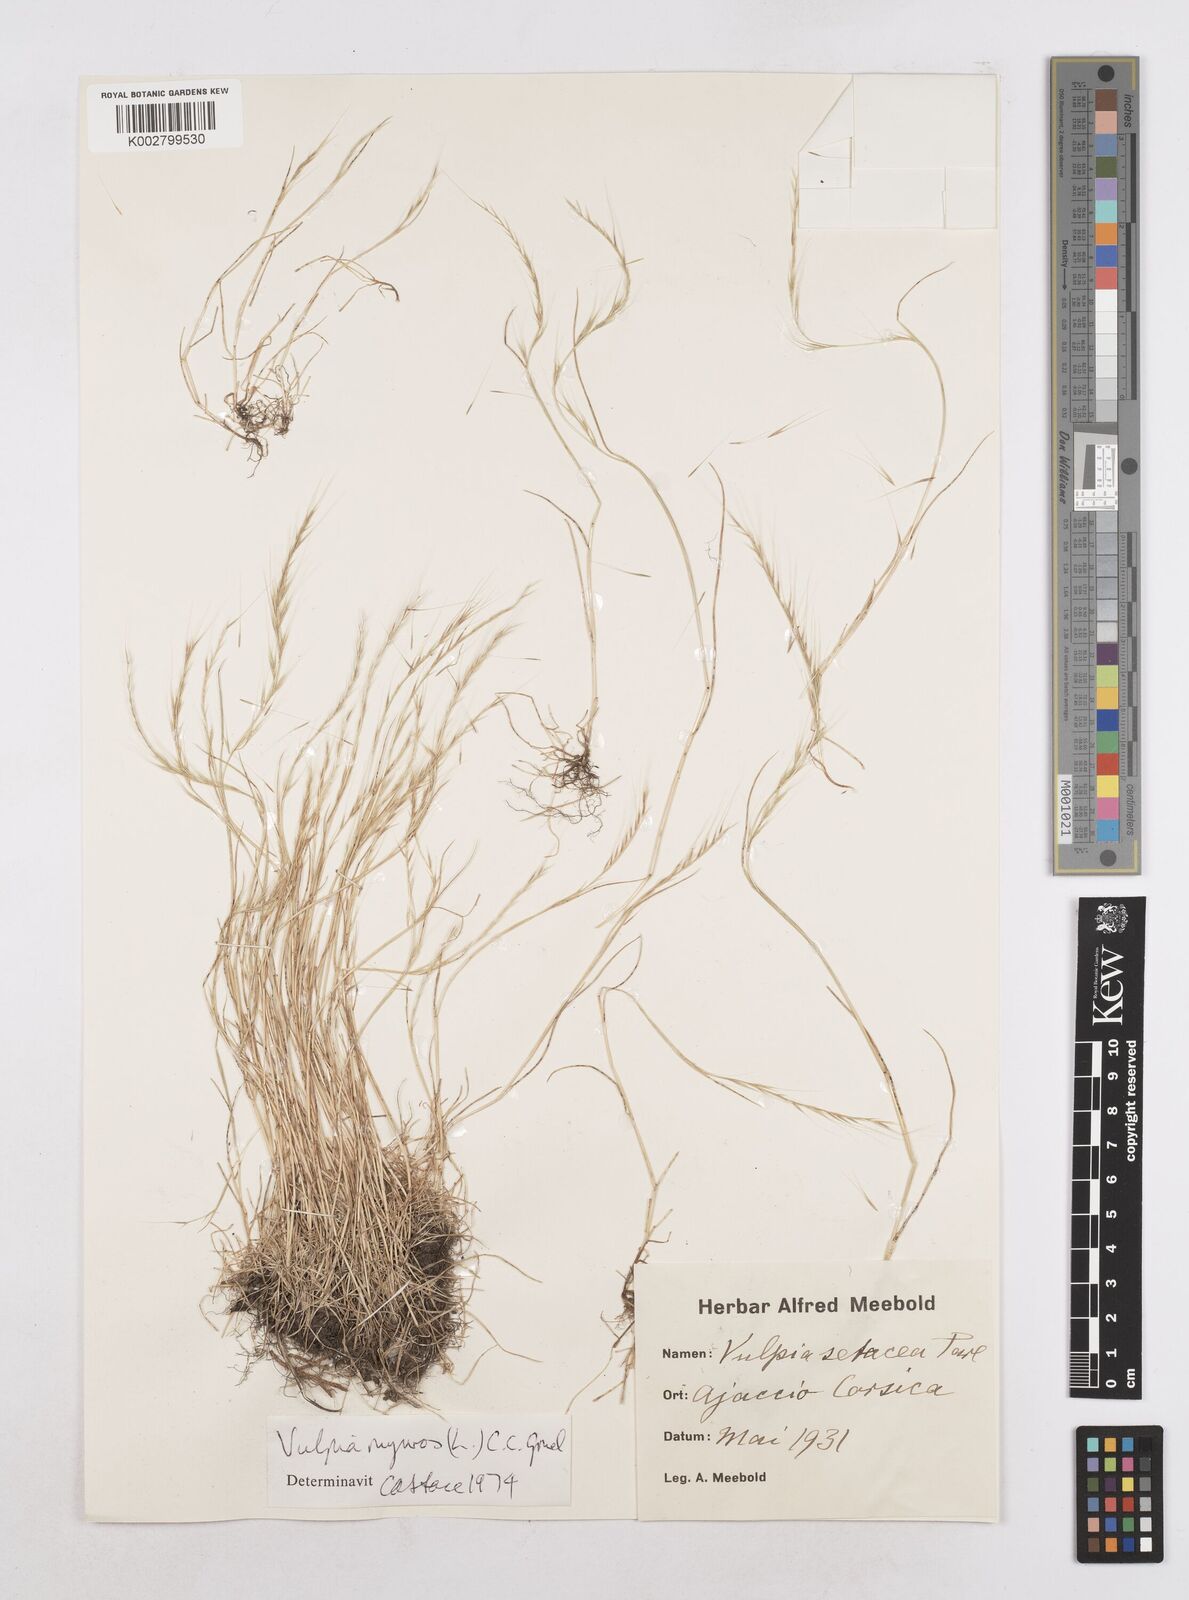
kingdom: Plantae
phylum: Tracheophyta
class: Liliopsida
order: Poales
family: Poaceae
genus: Festuca
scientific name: Festuca myuros
